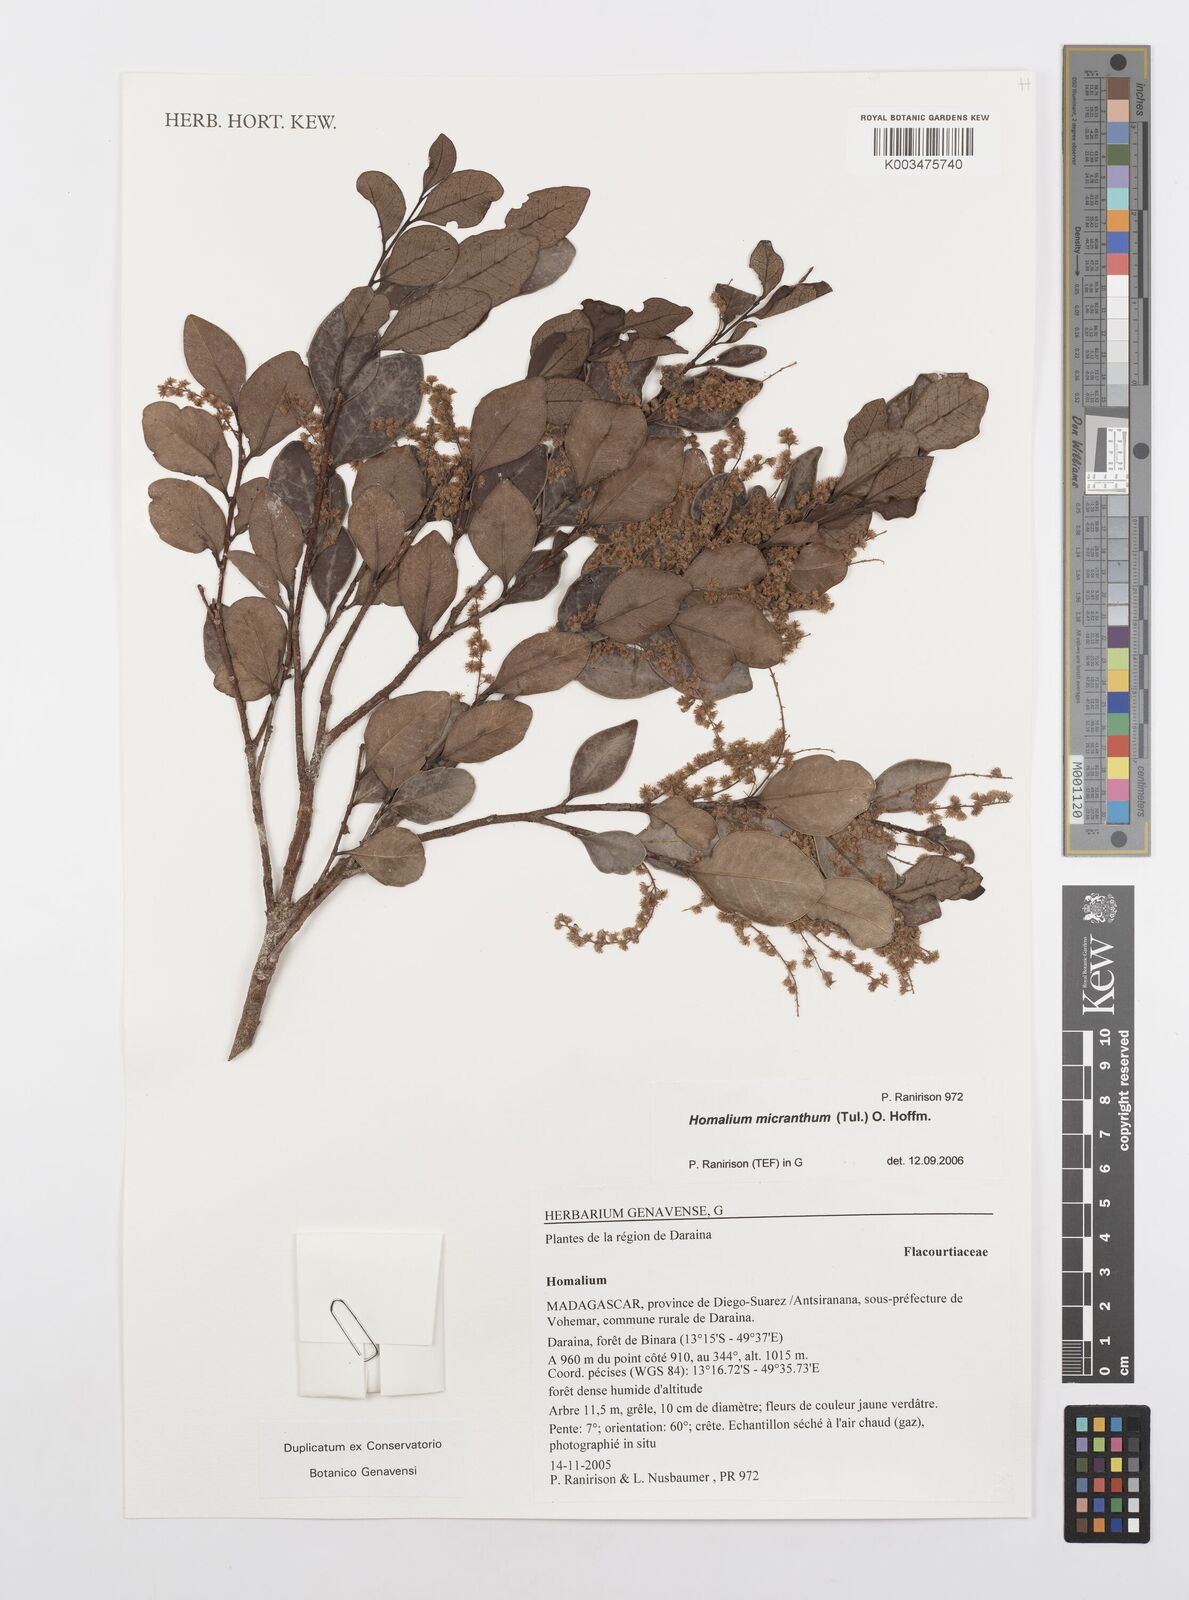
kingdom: Plantae
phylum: Tracheophyta
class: Magnoliopsida
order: Malpighiales
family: Salicaceae
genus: Homalium
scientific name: Homalium micranthum
